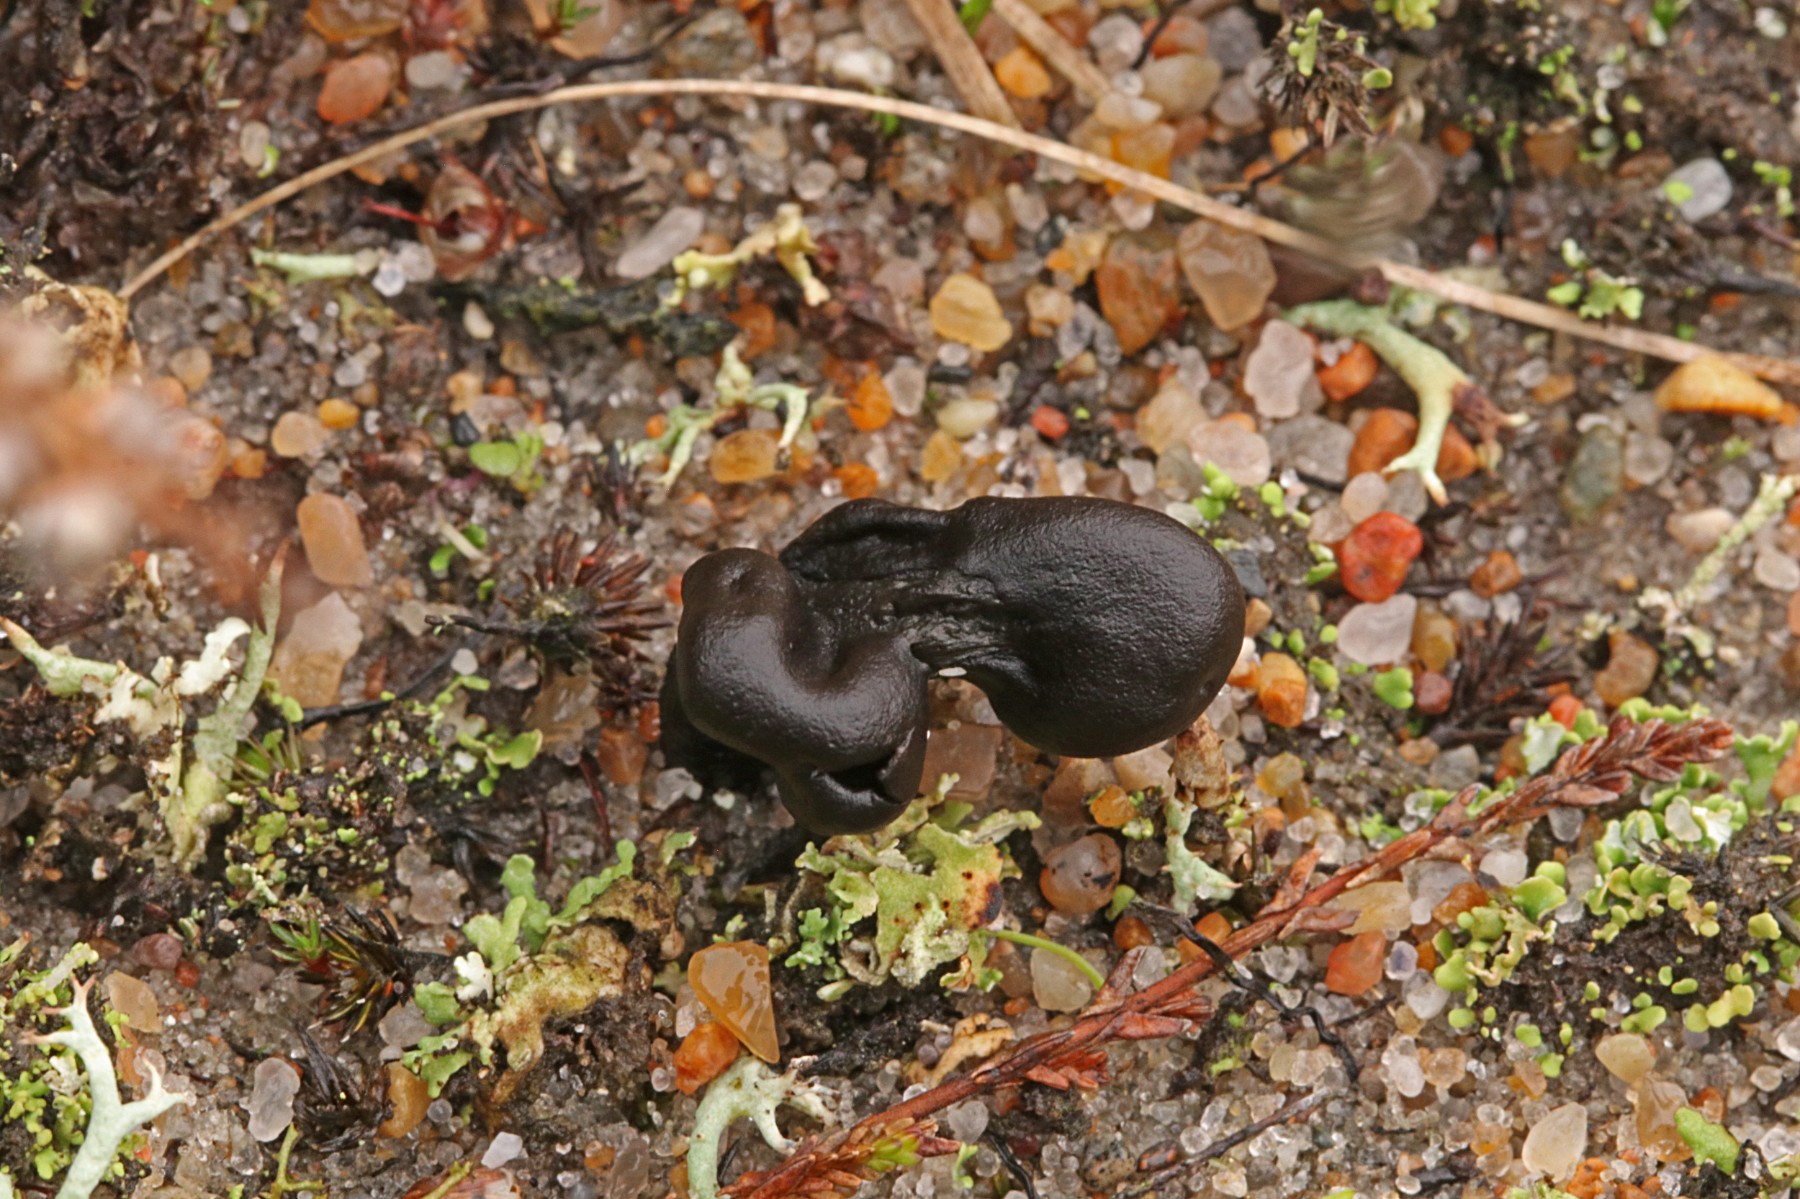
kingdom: Fungi
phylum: Ascomycota
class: Geoglossomycetes
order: Geoglossales
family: Geoglossaceae
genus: Sabuloglossum
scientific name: Sabuloglossum arenarium
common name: klit-jordtunge
